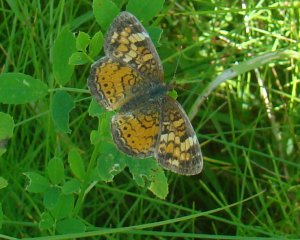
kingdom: Animalia
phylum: Arthropoda
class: Insecta
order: Lepidoptera
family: Nymphalidae
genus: Phyciodes
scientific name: Phyciodes tharos
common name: Northern Crescent
